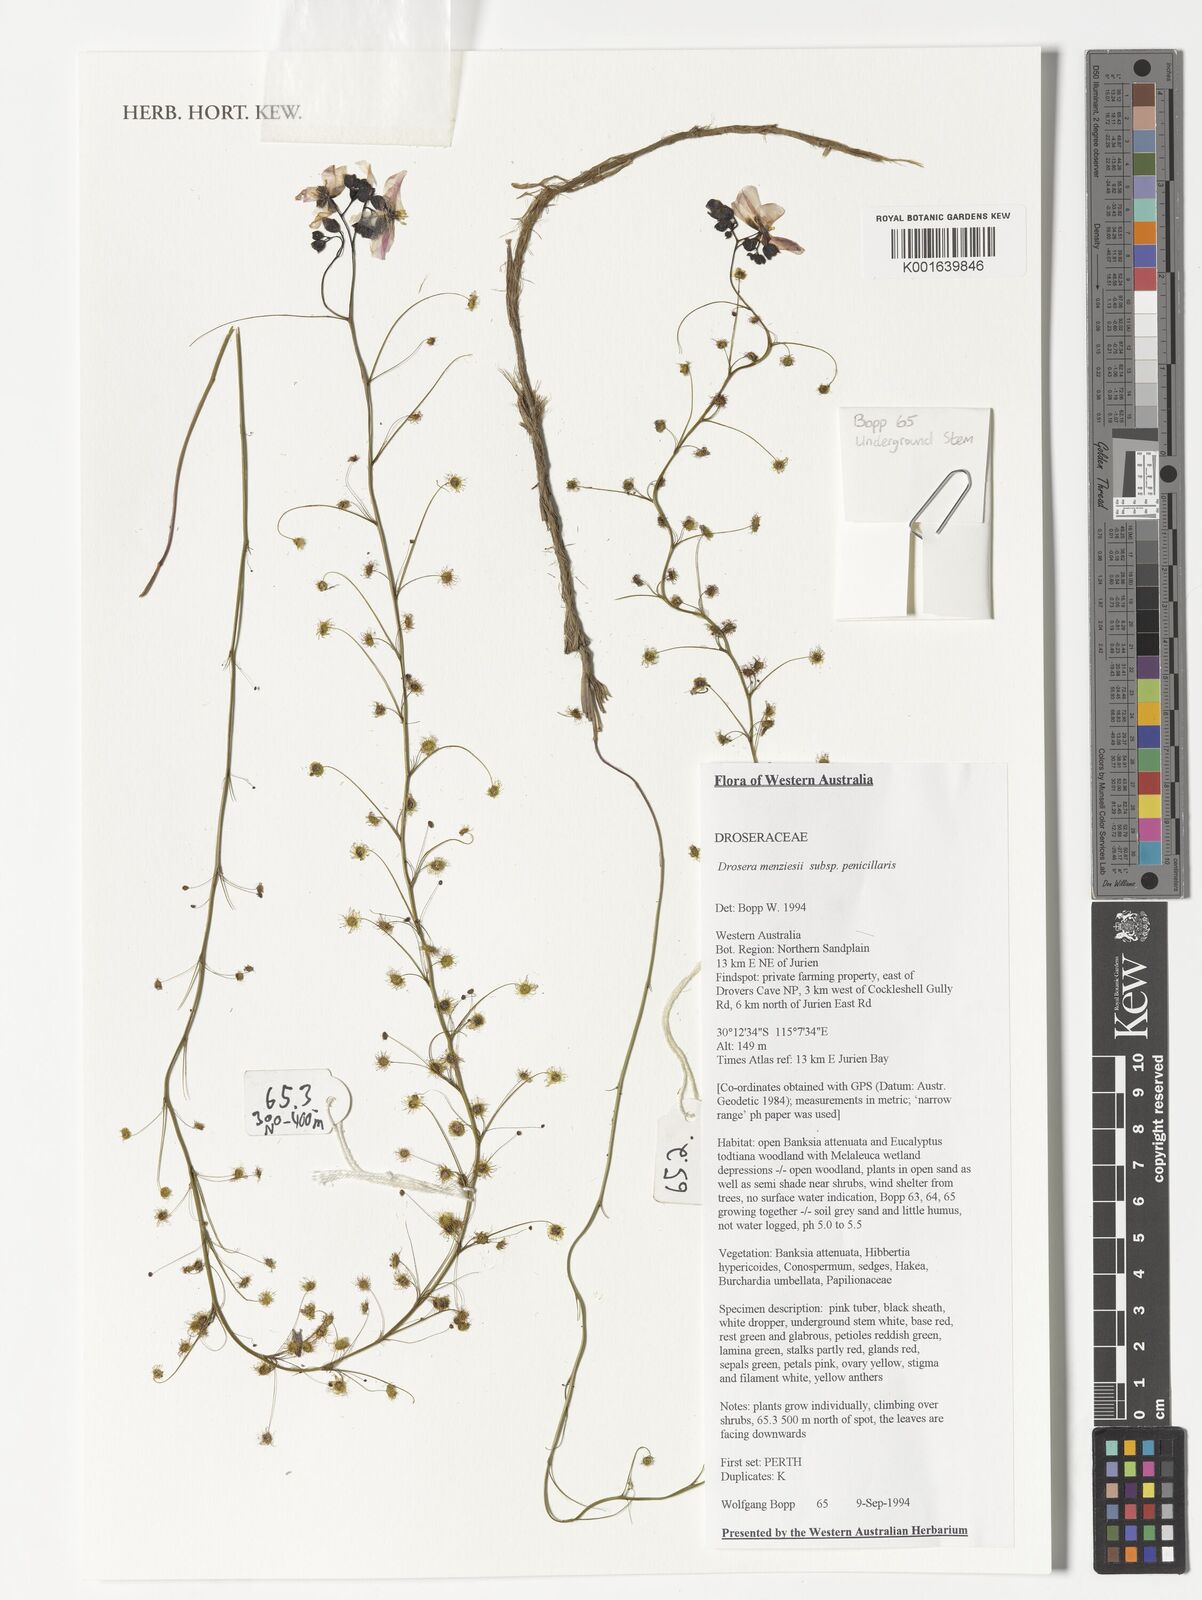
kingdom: Plantae
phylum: Tracheophyta
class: Magnoliopsida
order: Caryophyllales
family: Droseraceae
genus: Drosera
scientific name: Drosera menziesii
